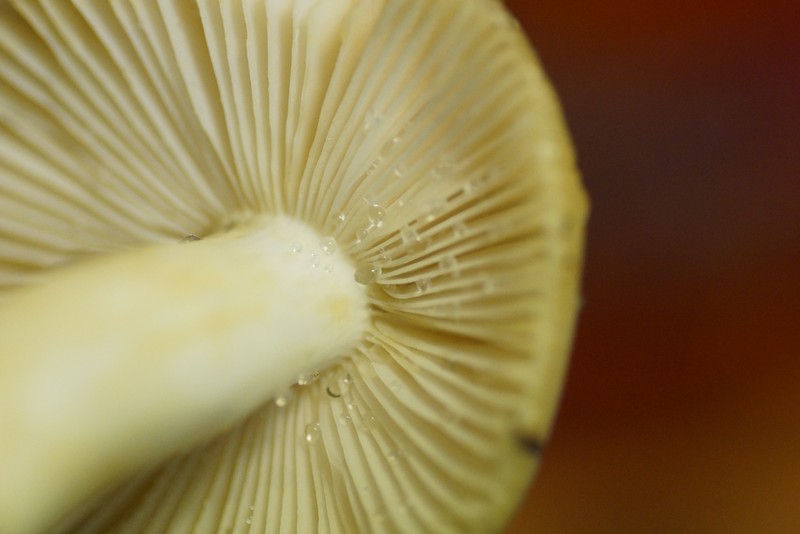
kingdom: Fungi
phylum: Basidiomycota
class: Agaricomycetes
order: Russulales
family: Russulaceae
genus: Russula
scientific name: Russula farinipes
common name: gul kam-skørhat
